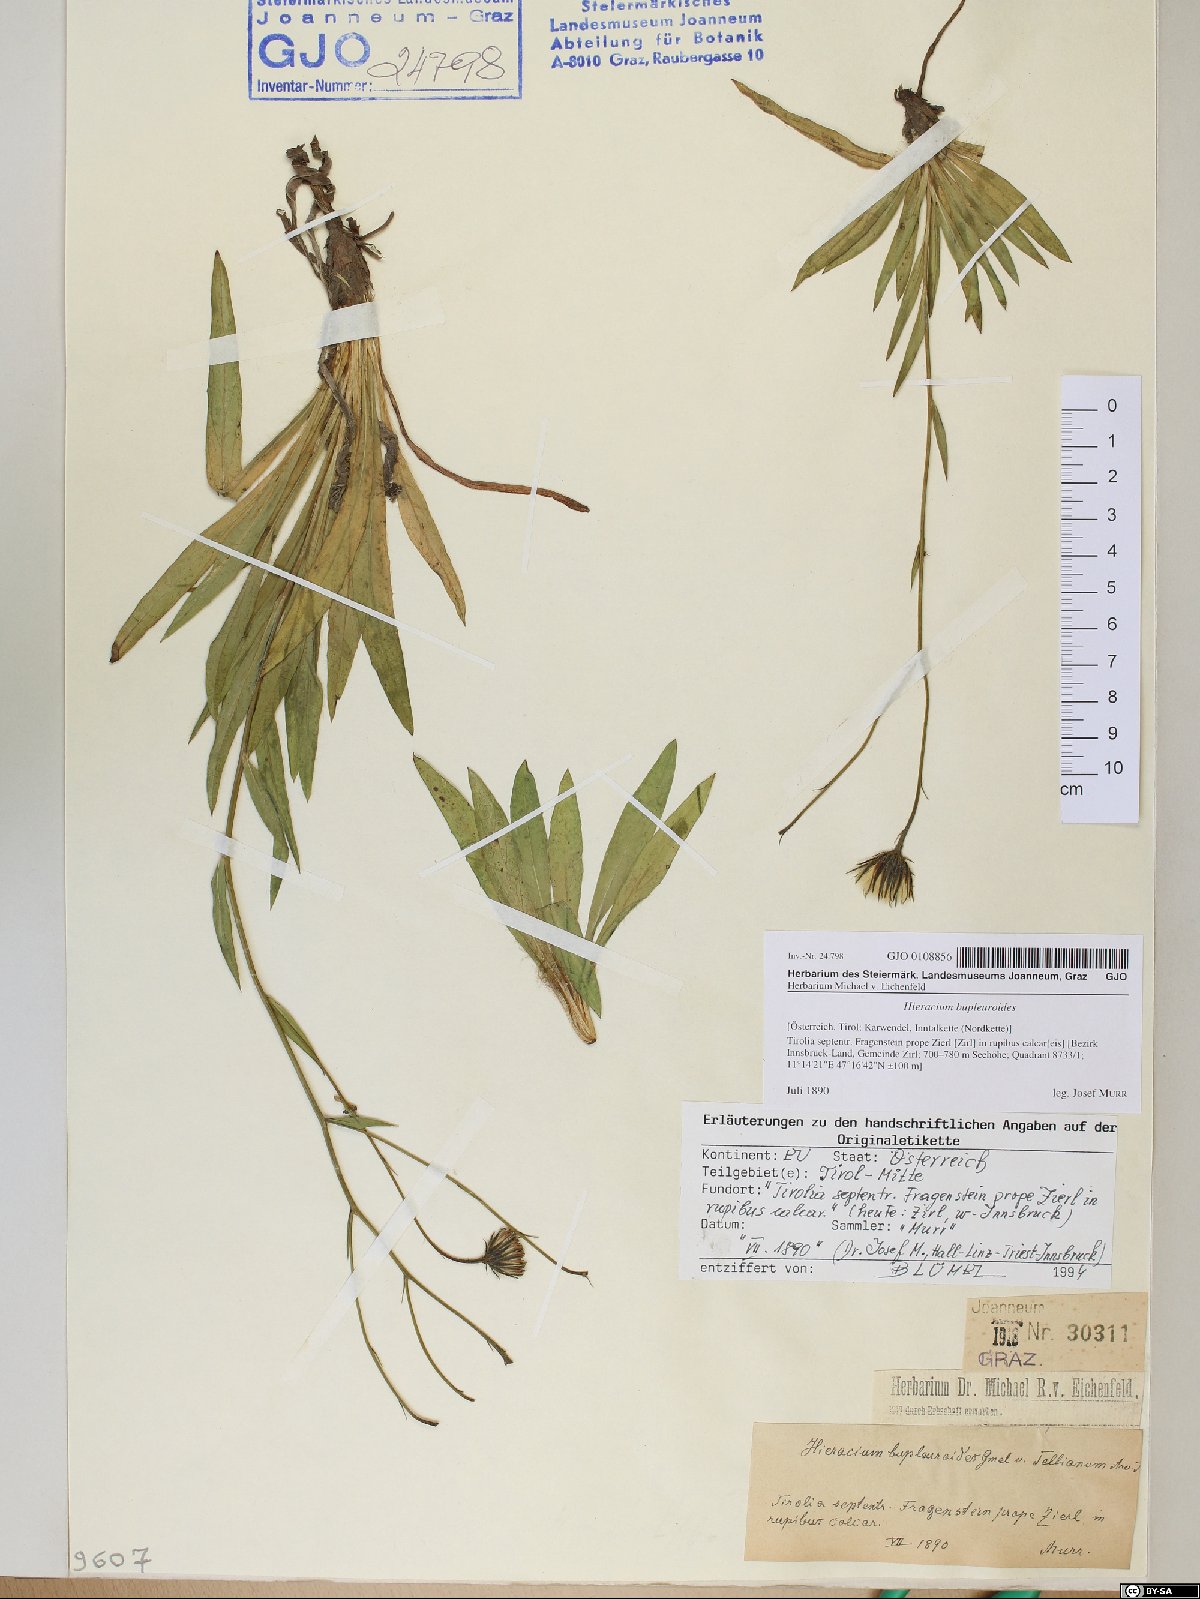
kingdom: Plantae
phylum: Tracheophyta
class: Magnoliopsida
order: Asterales
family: Asteraceae
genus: Hieracium
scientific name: Hieracium bupleuroides
